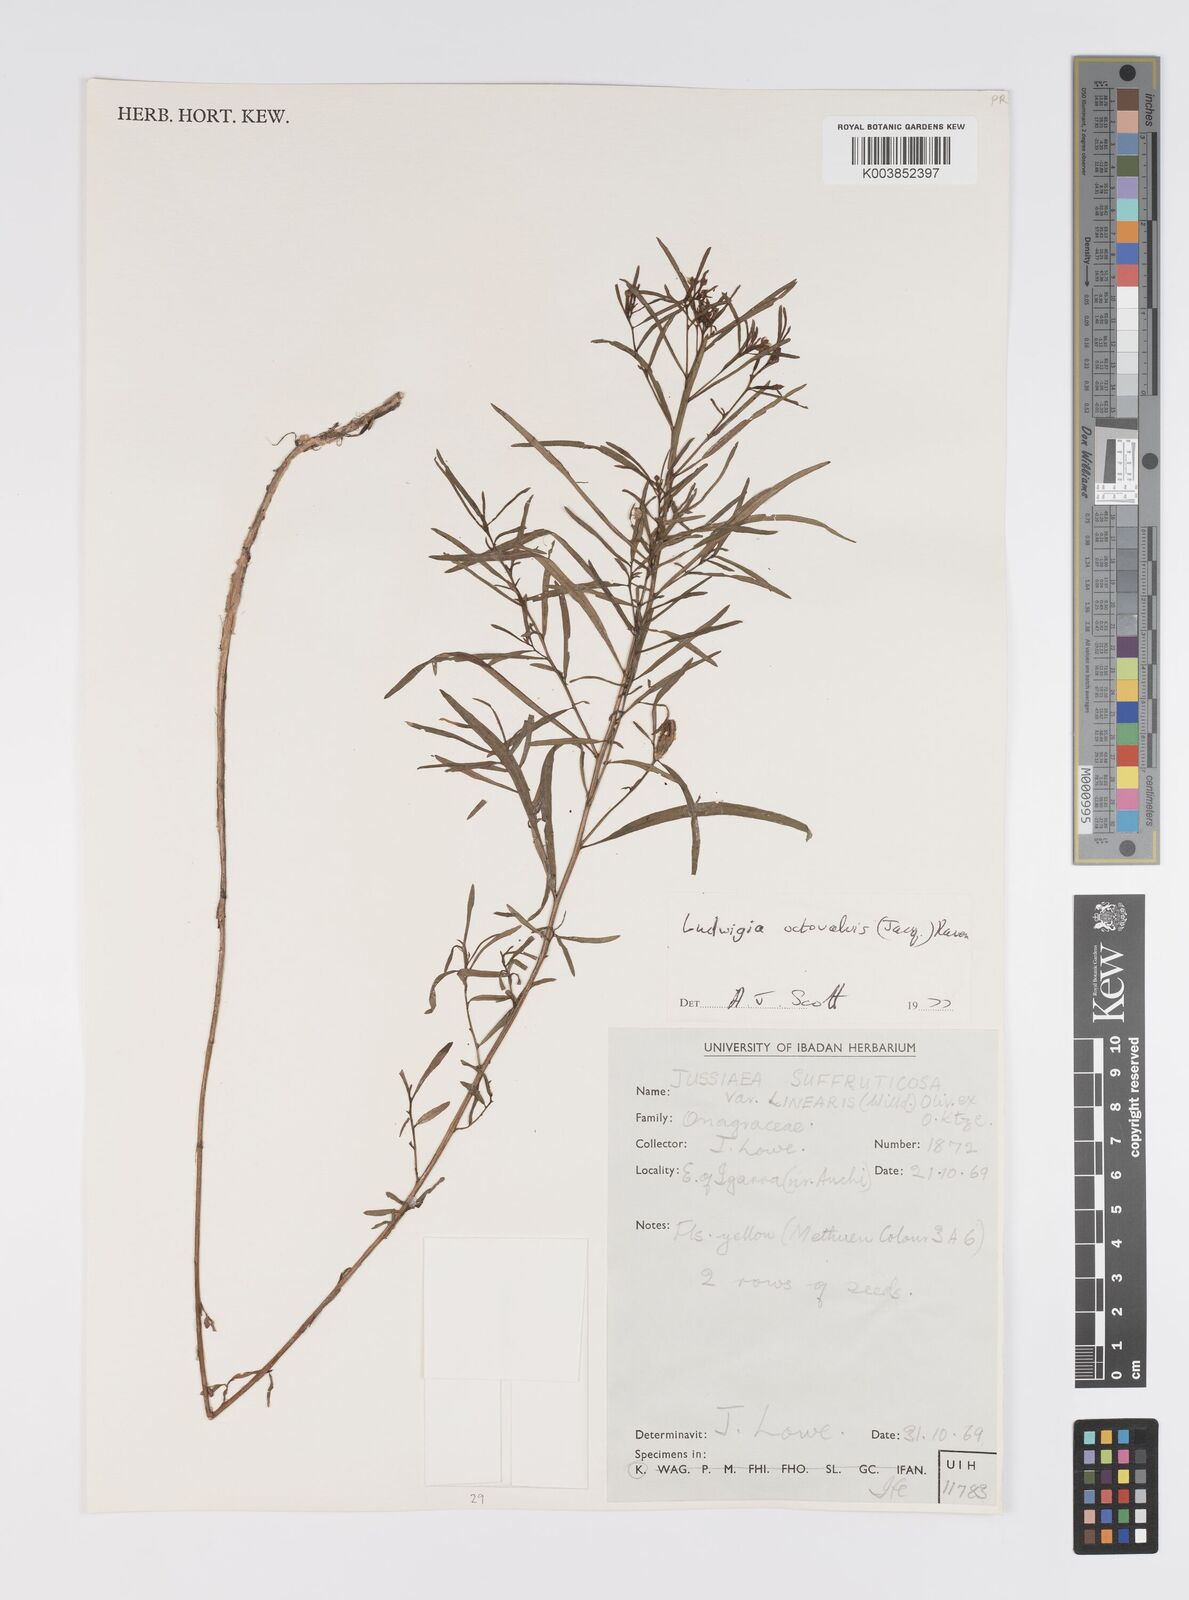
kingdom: Plantae
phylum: Tracheophyta
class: Magnoliopsida
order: Myrtales
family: Onagraceae
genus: Ludwigia
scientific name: Ludwigia octovalvis
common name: Water-primrose
